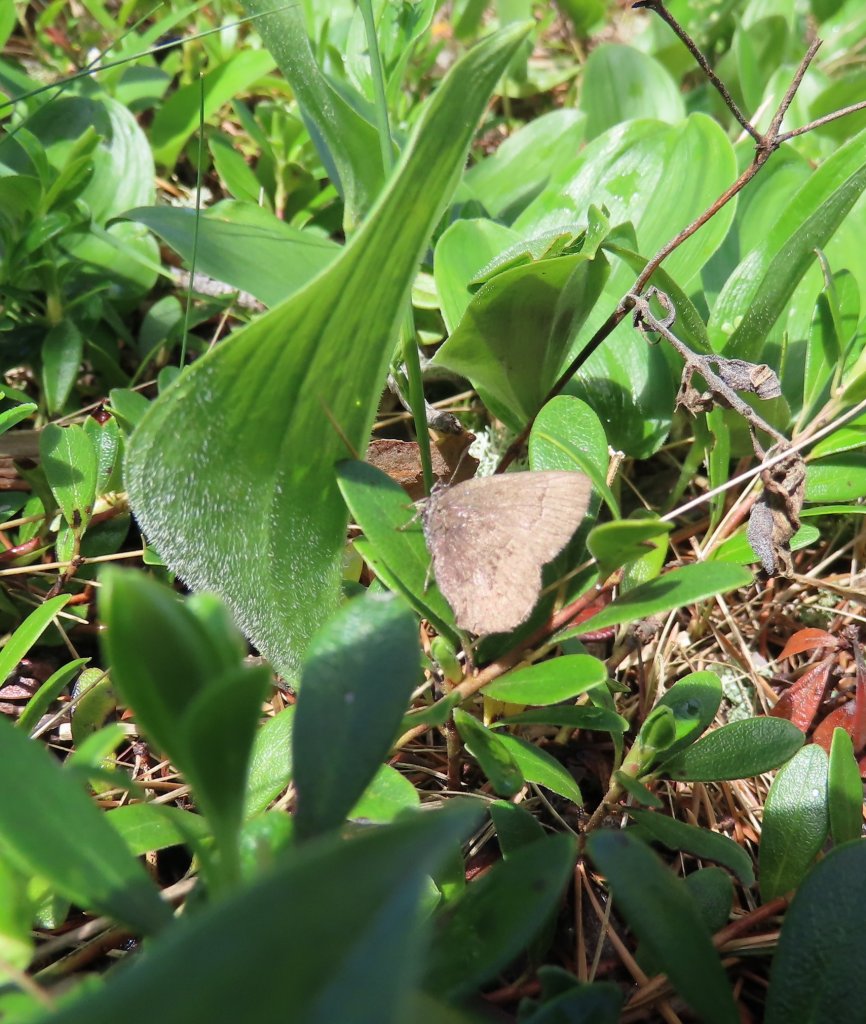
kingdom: Animalia
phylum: Arthropoda
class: Insecta
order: Lepidoptera
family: Lycaenidae
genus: Incisalia
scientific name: Incisalia irioides
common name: Brown Elfin
